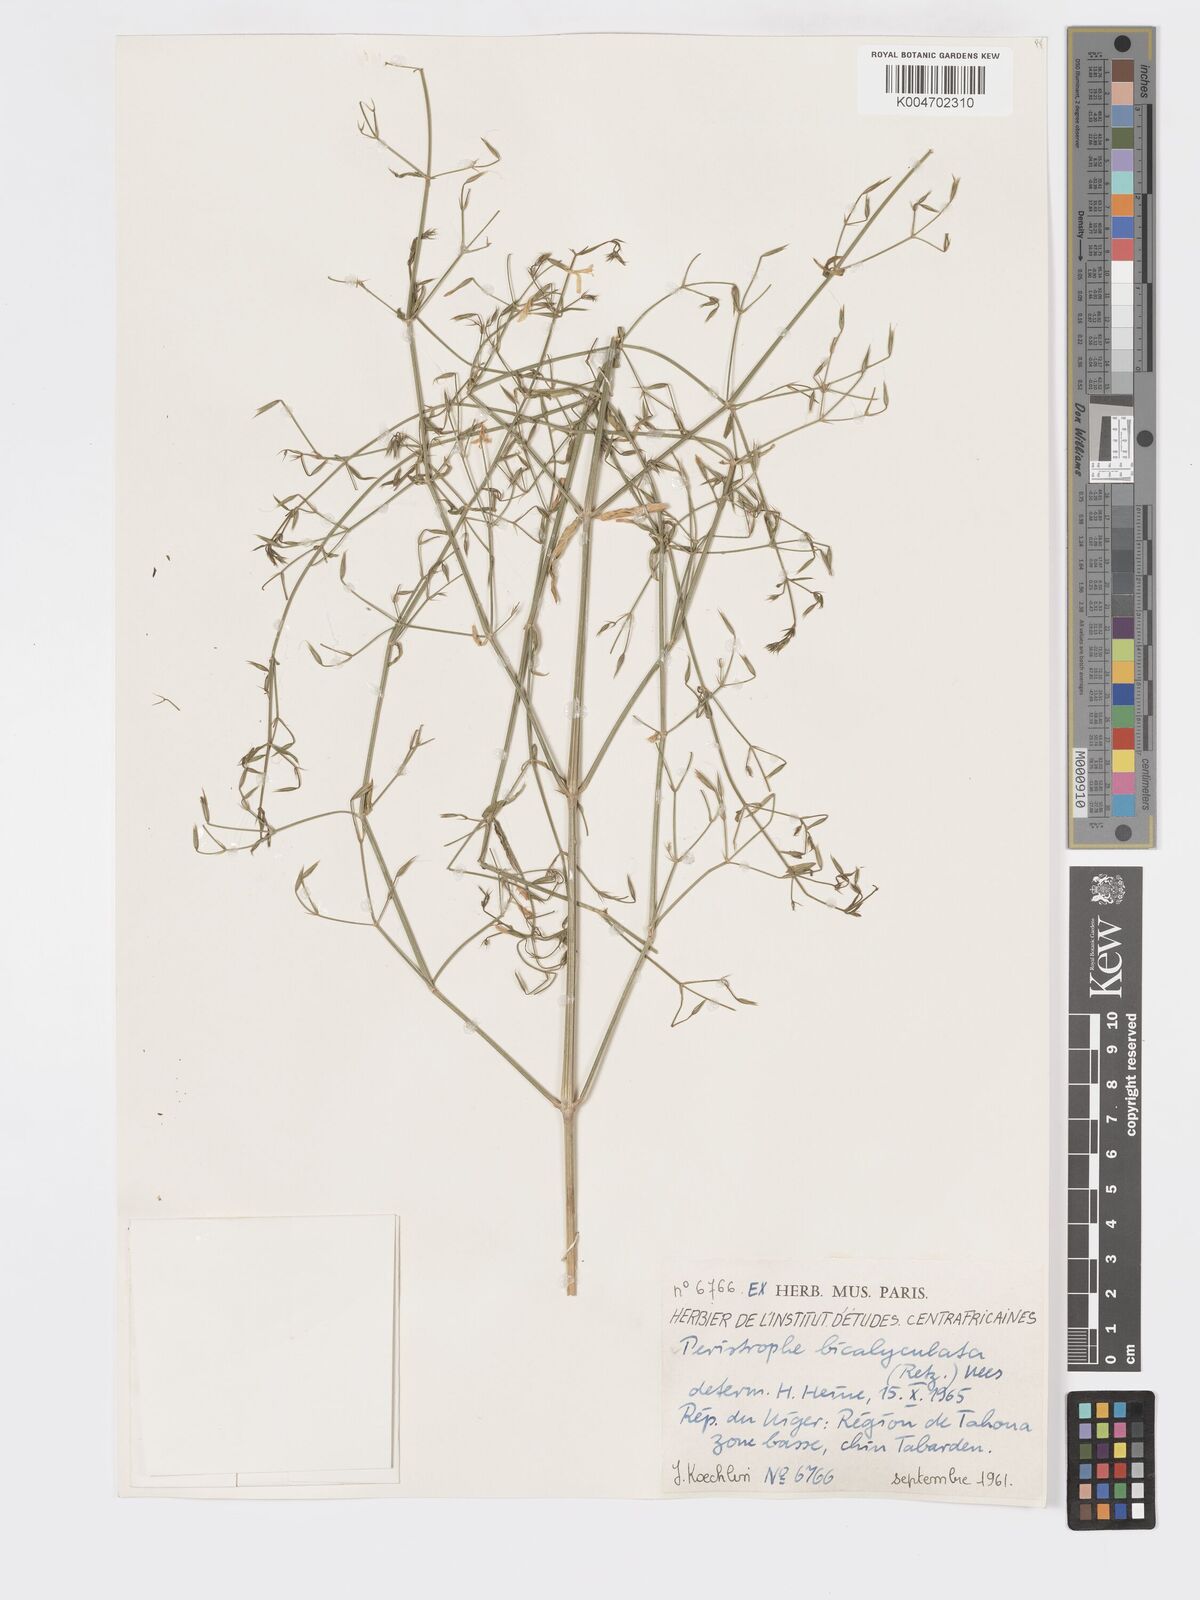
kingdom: Plantae
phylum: Tracheophyta
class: Magnoliopsida
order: Lamiales
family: Acanthaceae
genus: Dicliptera
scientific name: Dicliptera paniculata
